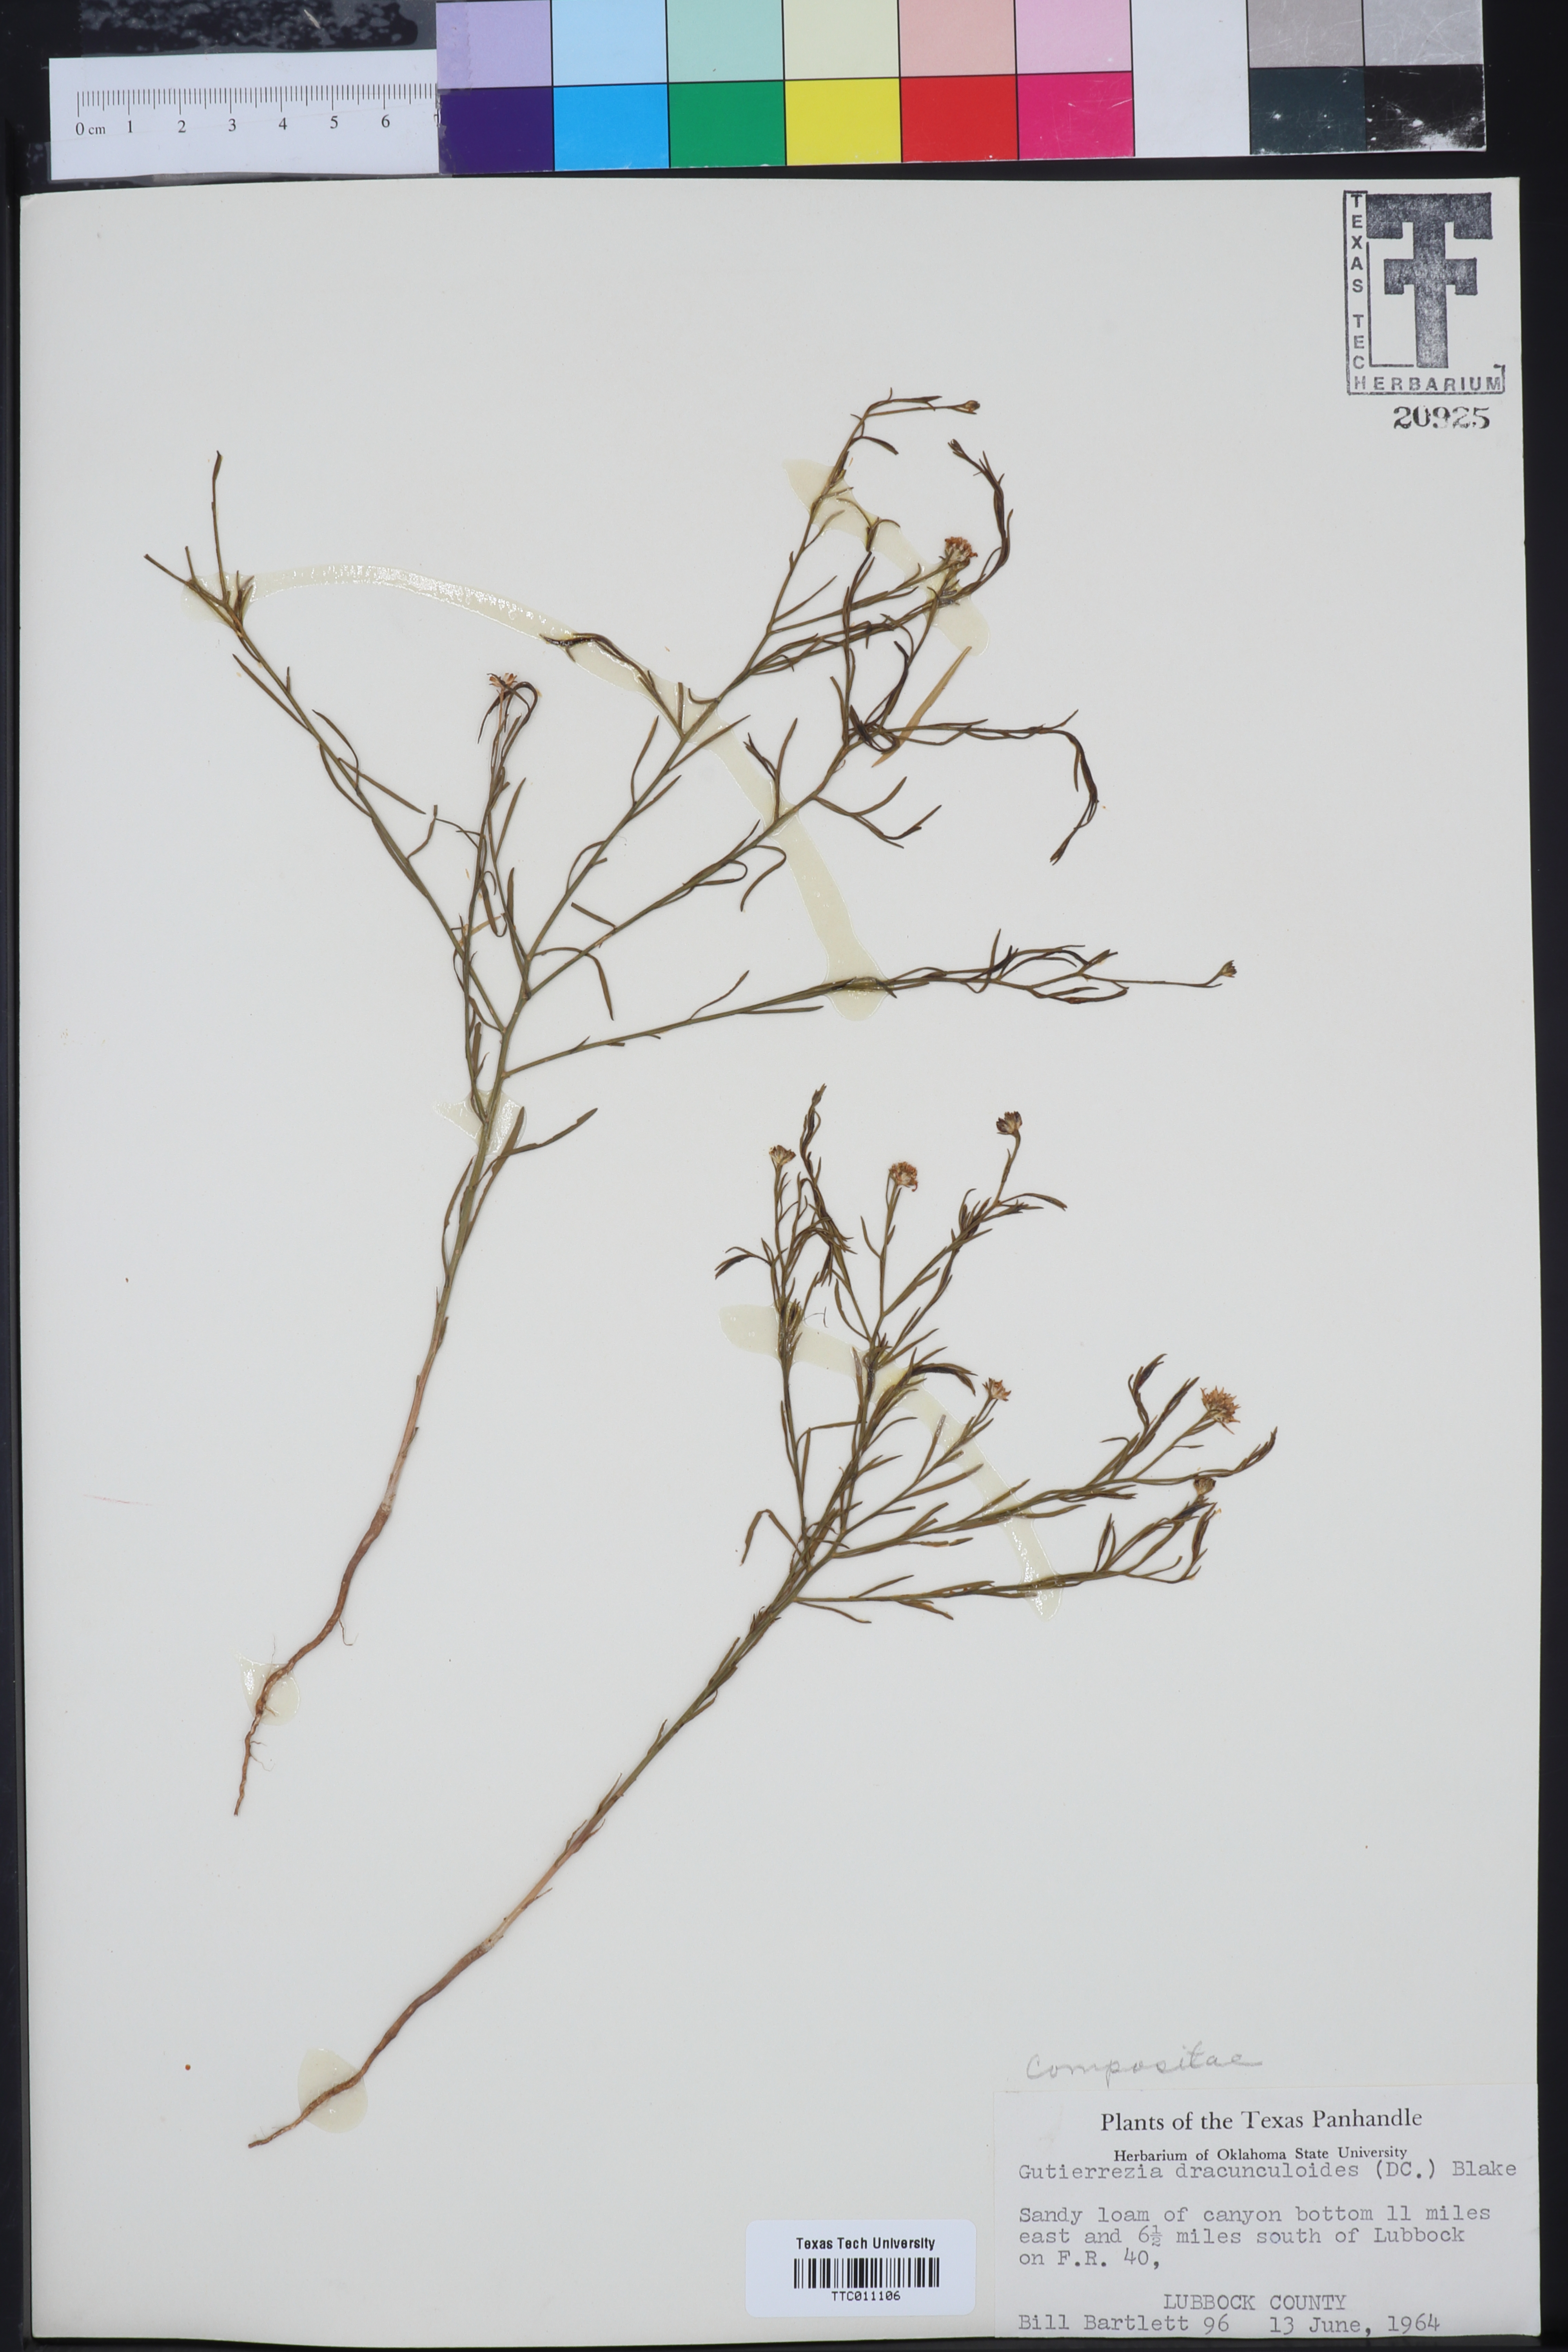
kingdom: Plantae
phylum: Tracheophyta
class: Magnoliopsida
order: Asterales
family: Asteraceae
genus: Amphiachyris
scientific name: Amphiachyris dracunculoides
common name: Broomweed
